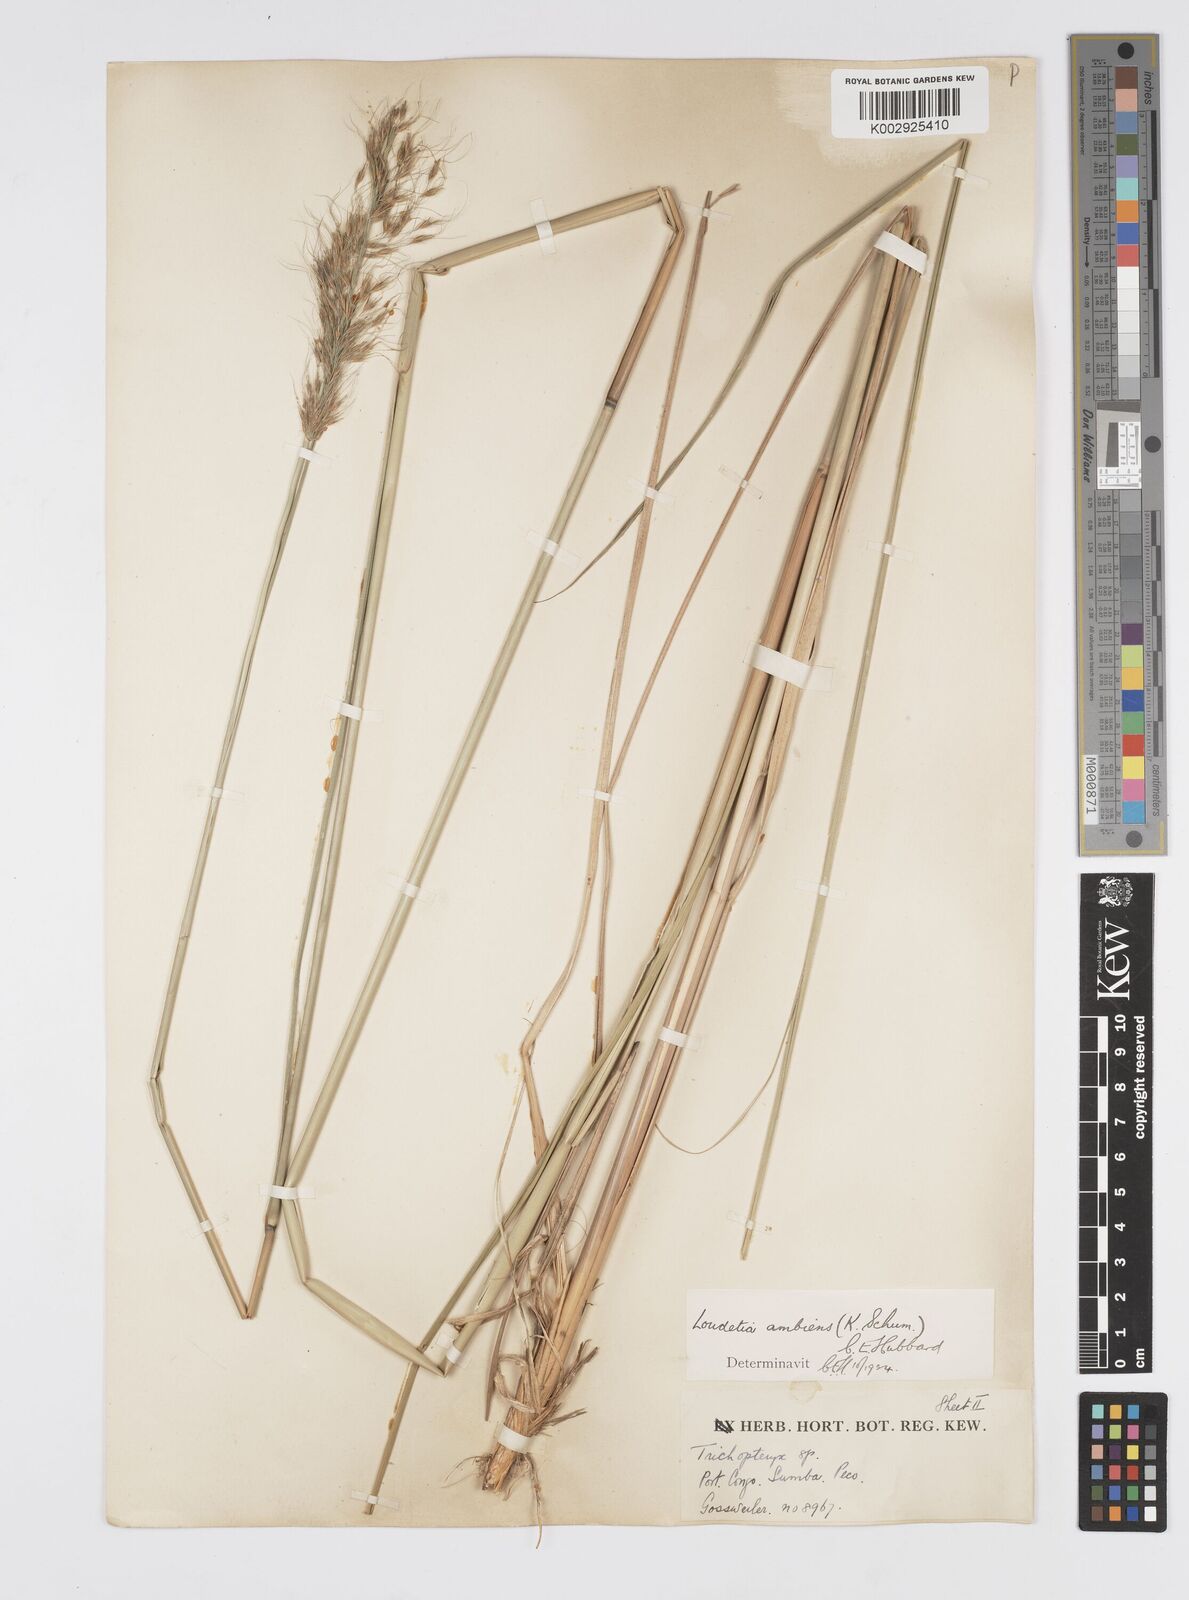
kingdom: Plantae
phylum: Tracheophyta
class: Liliopsida
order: Poales
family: Poaceae
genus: Loudetiopsis
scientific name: Loudetiopsis ambiens
